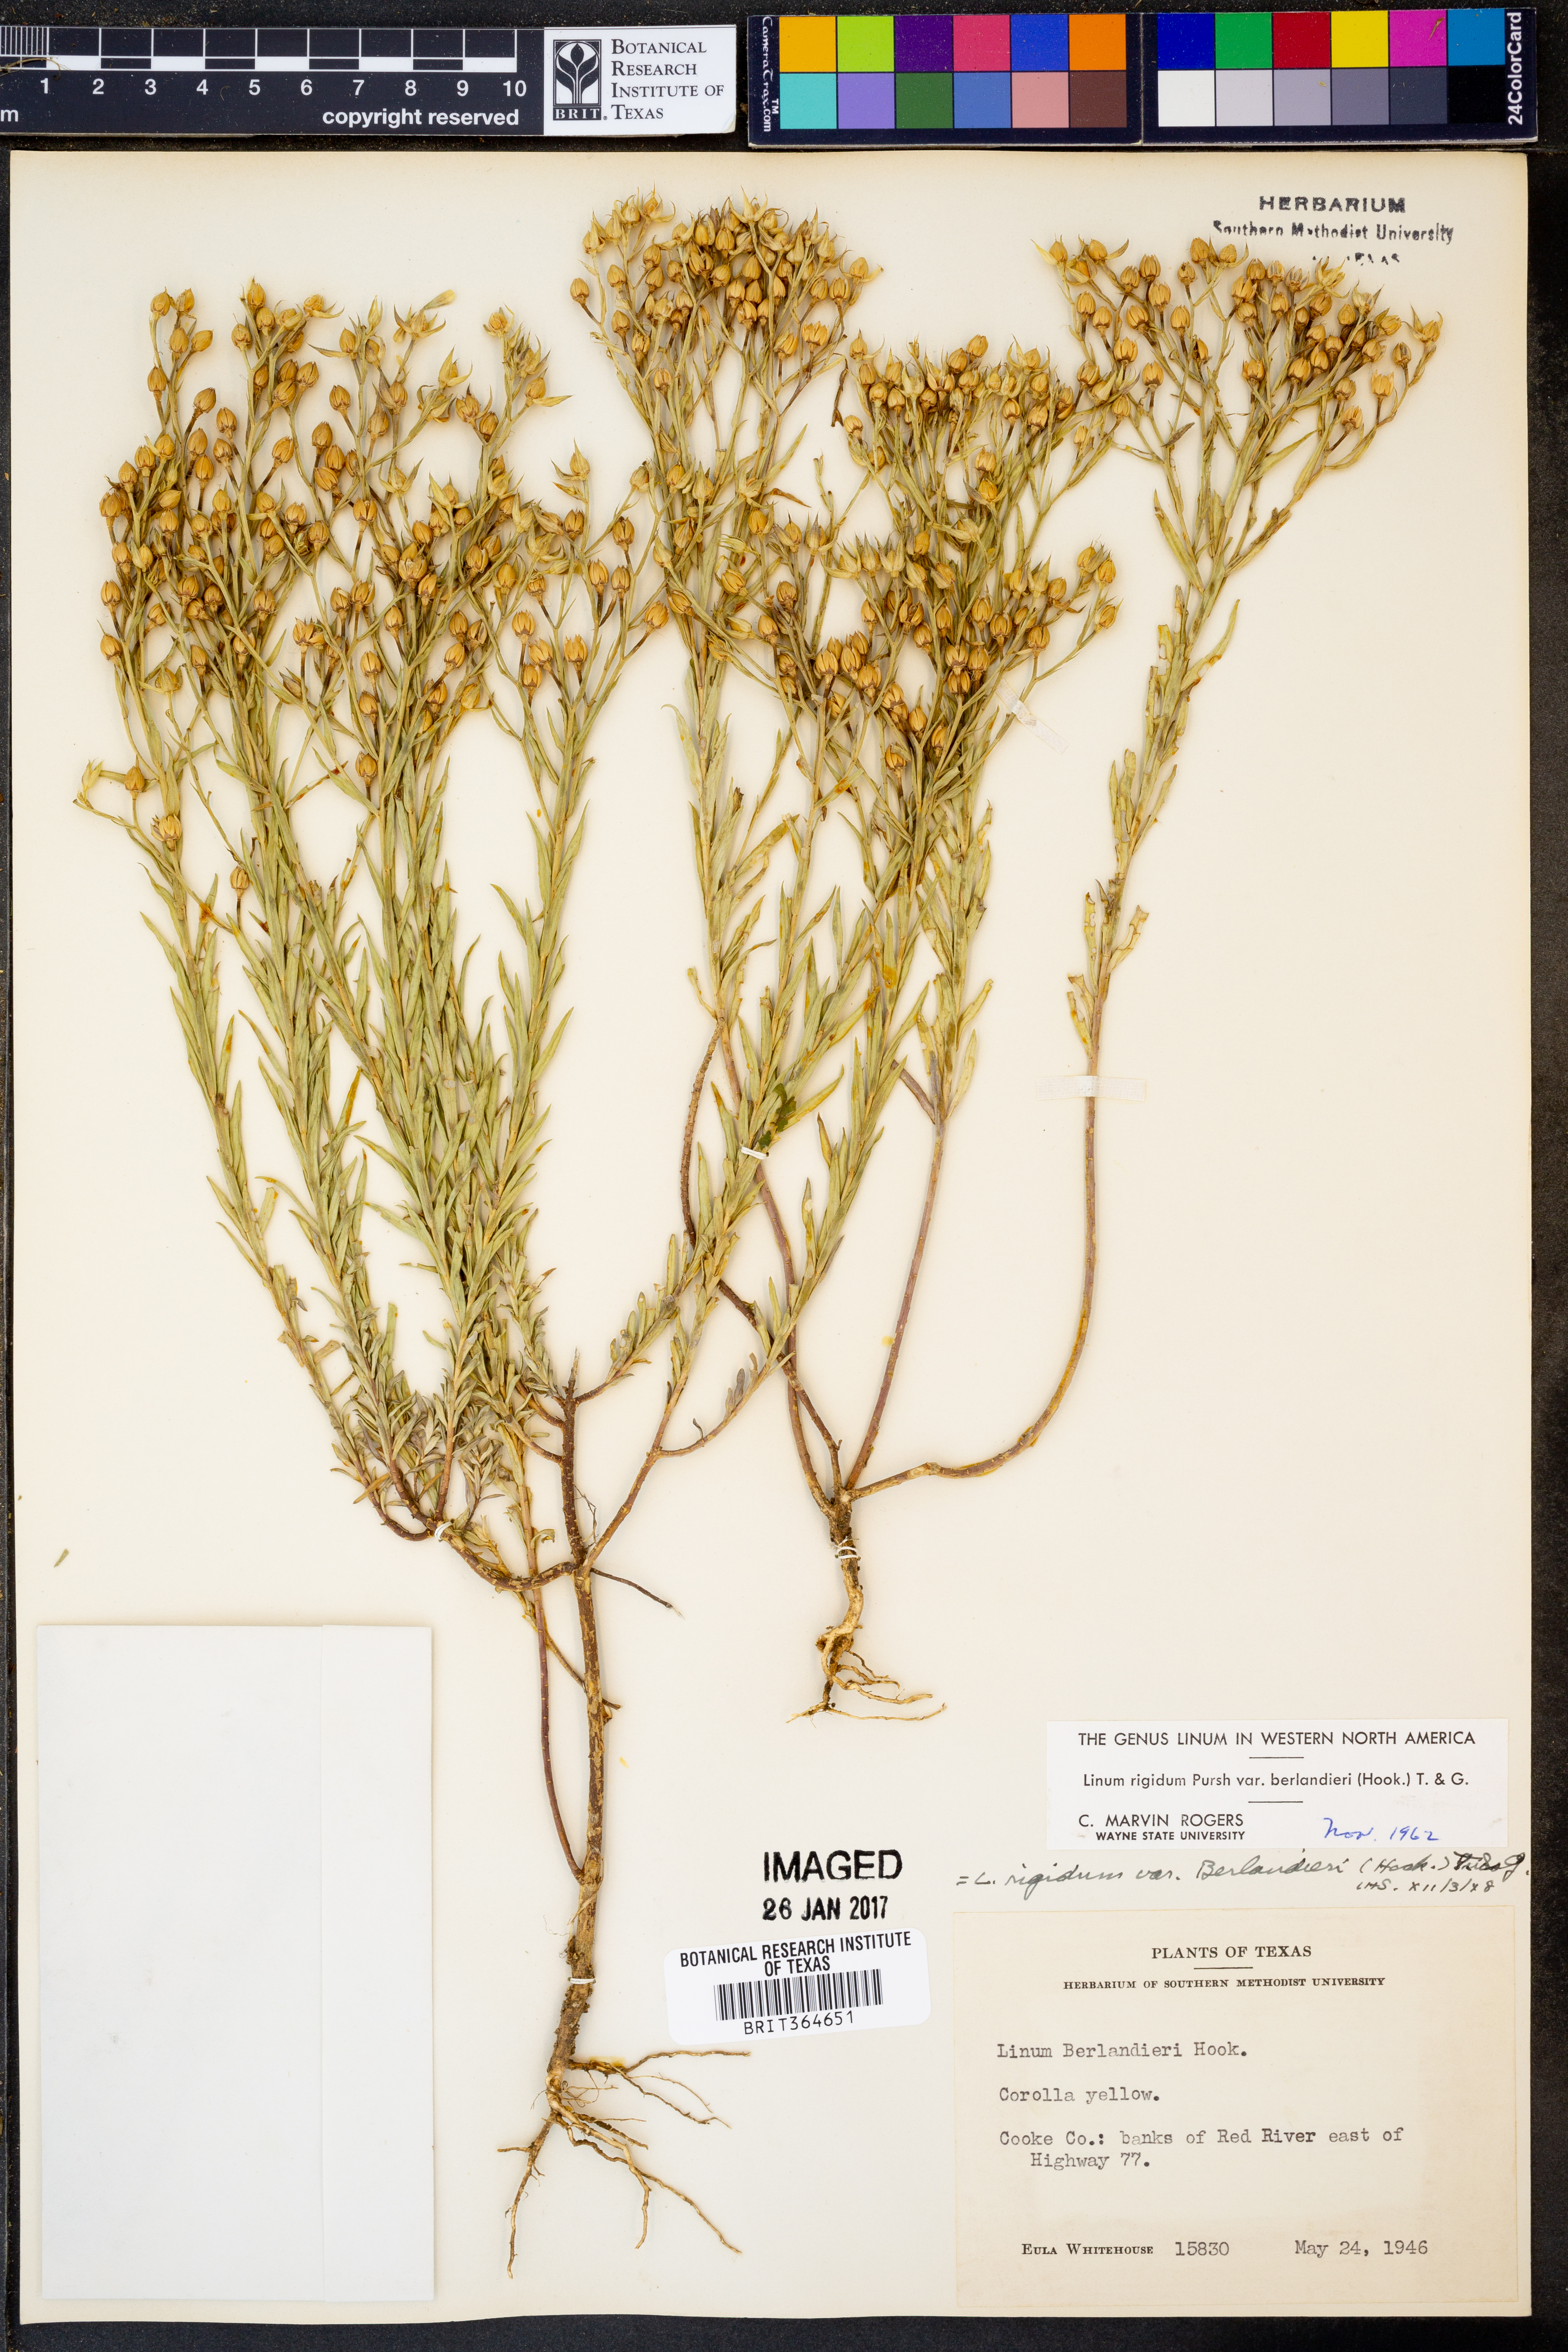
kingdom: Plantae
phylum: Tracheophyta
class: Magnoliopsida
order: Malpighiales
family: Linaceae
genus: Linum
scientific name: Linum berlandieri
